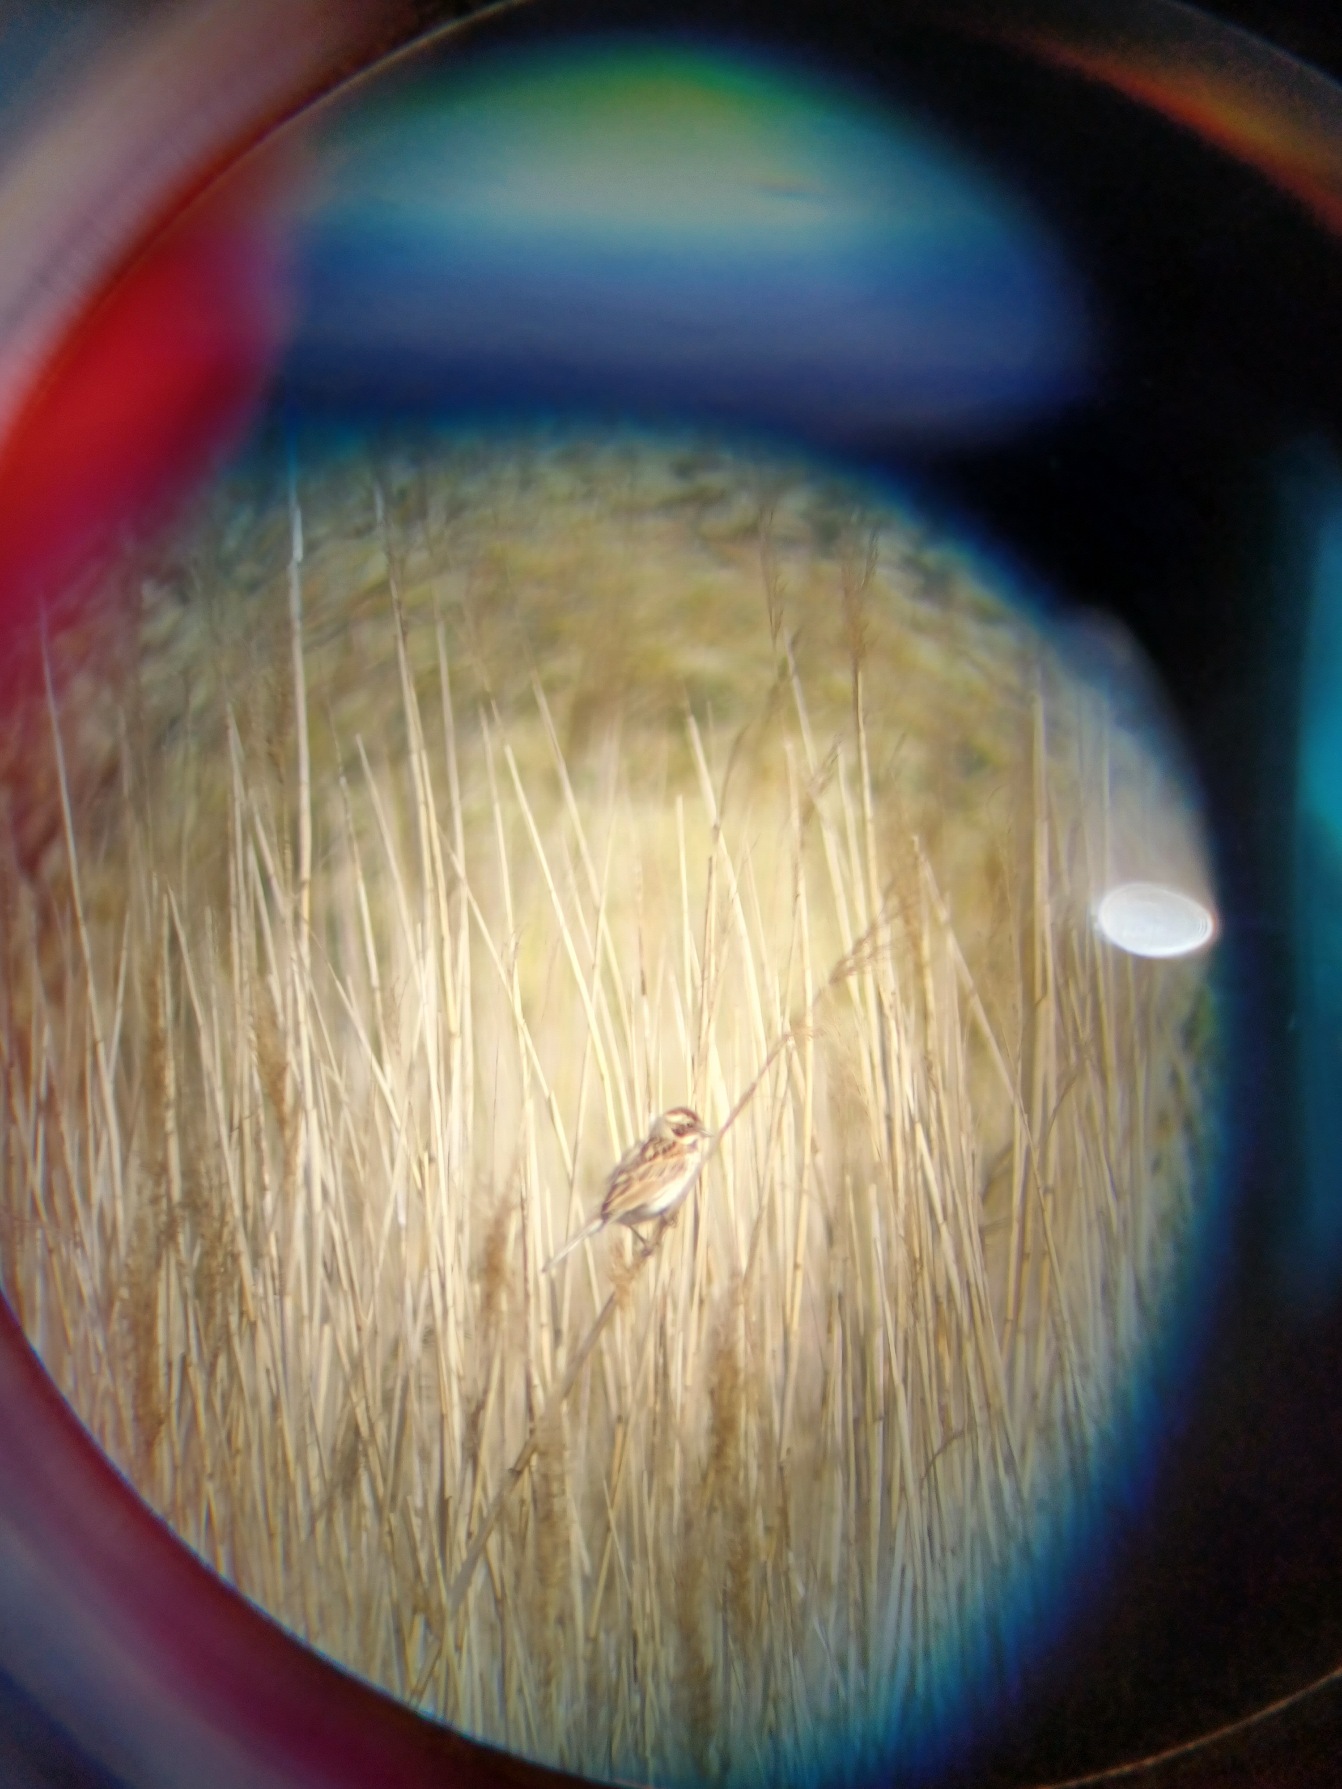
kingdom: Animalia
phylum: Chordata
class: Aves
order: Passeriformes
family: Emberizidae
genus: Emberiza
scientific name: Emberiza schoeniclus
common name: Rørspurv
